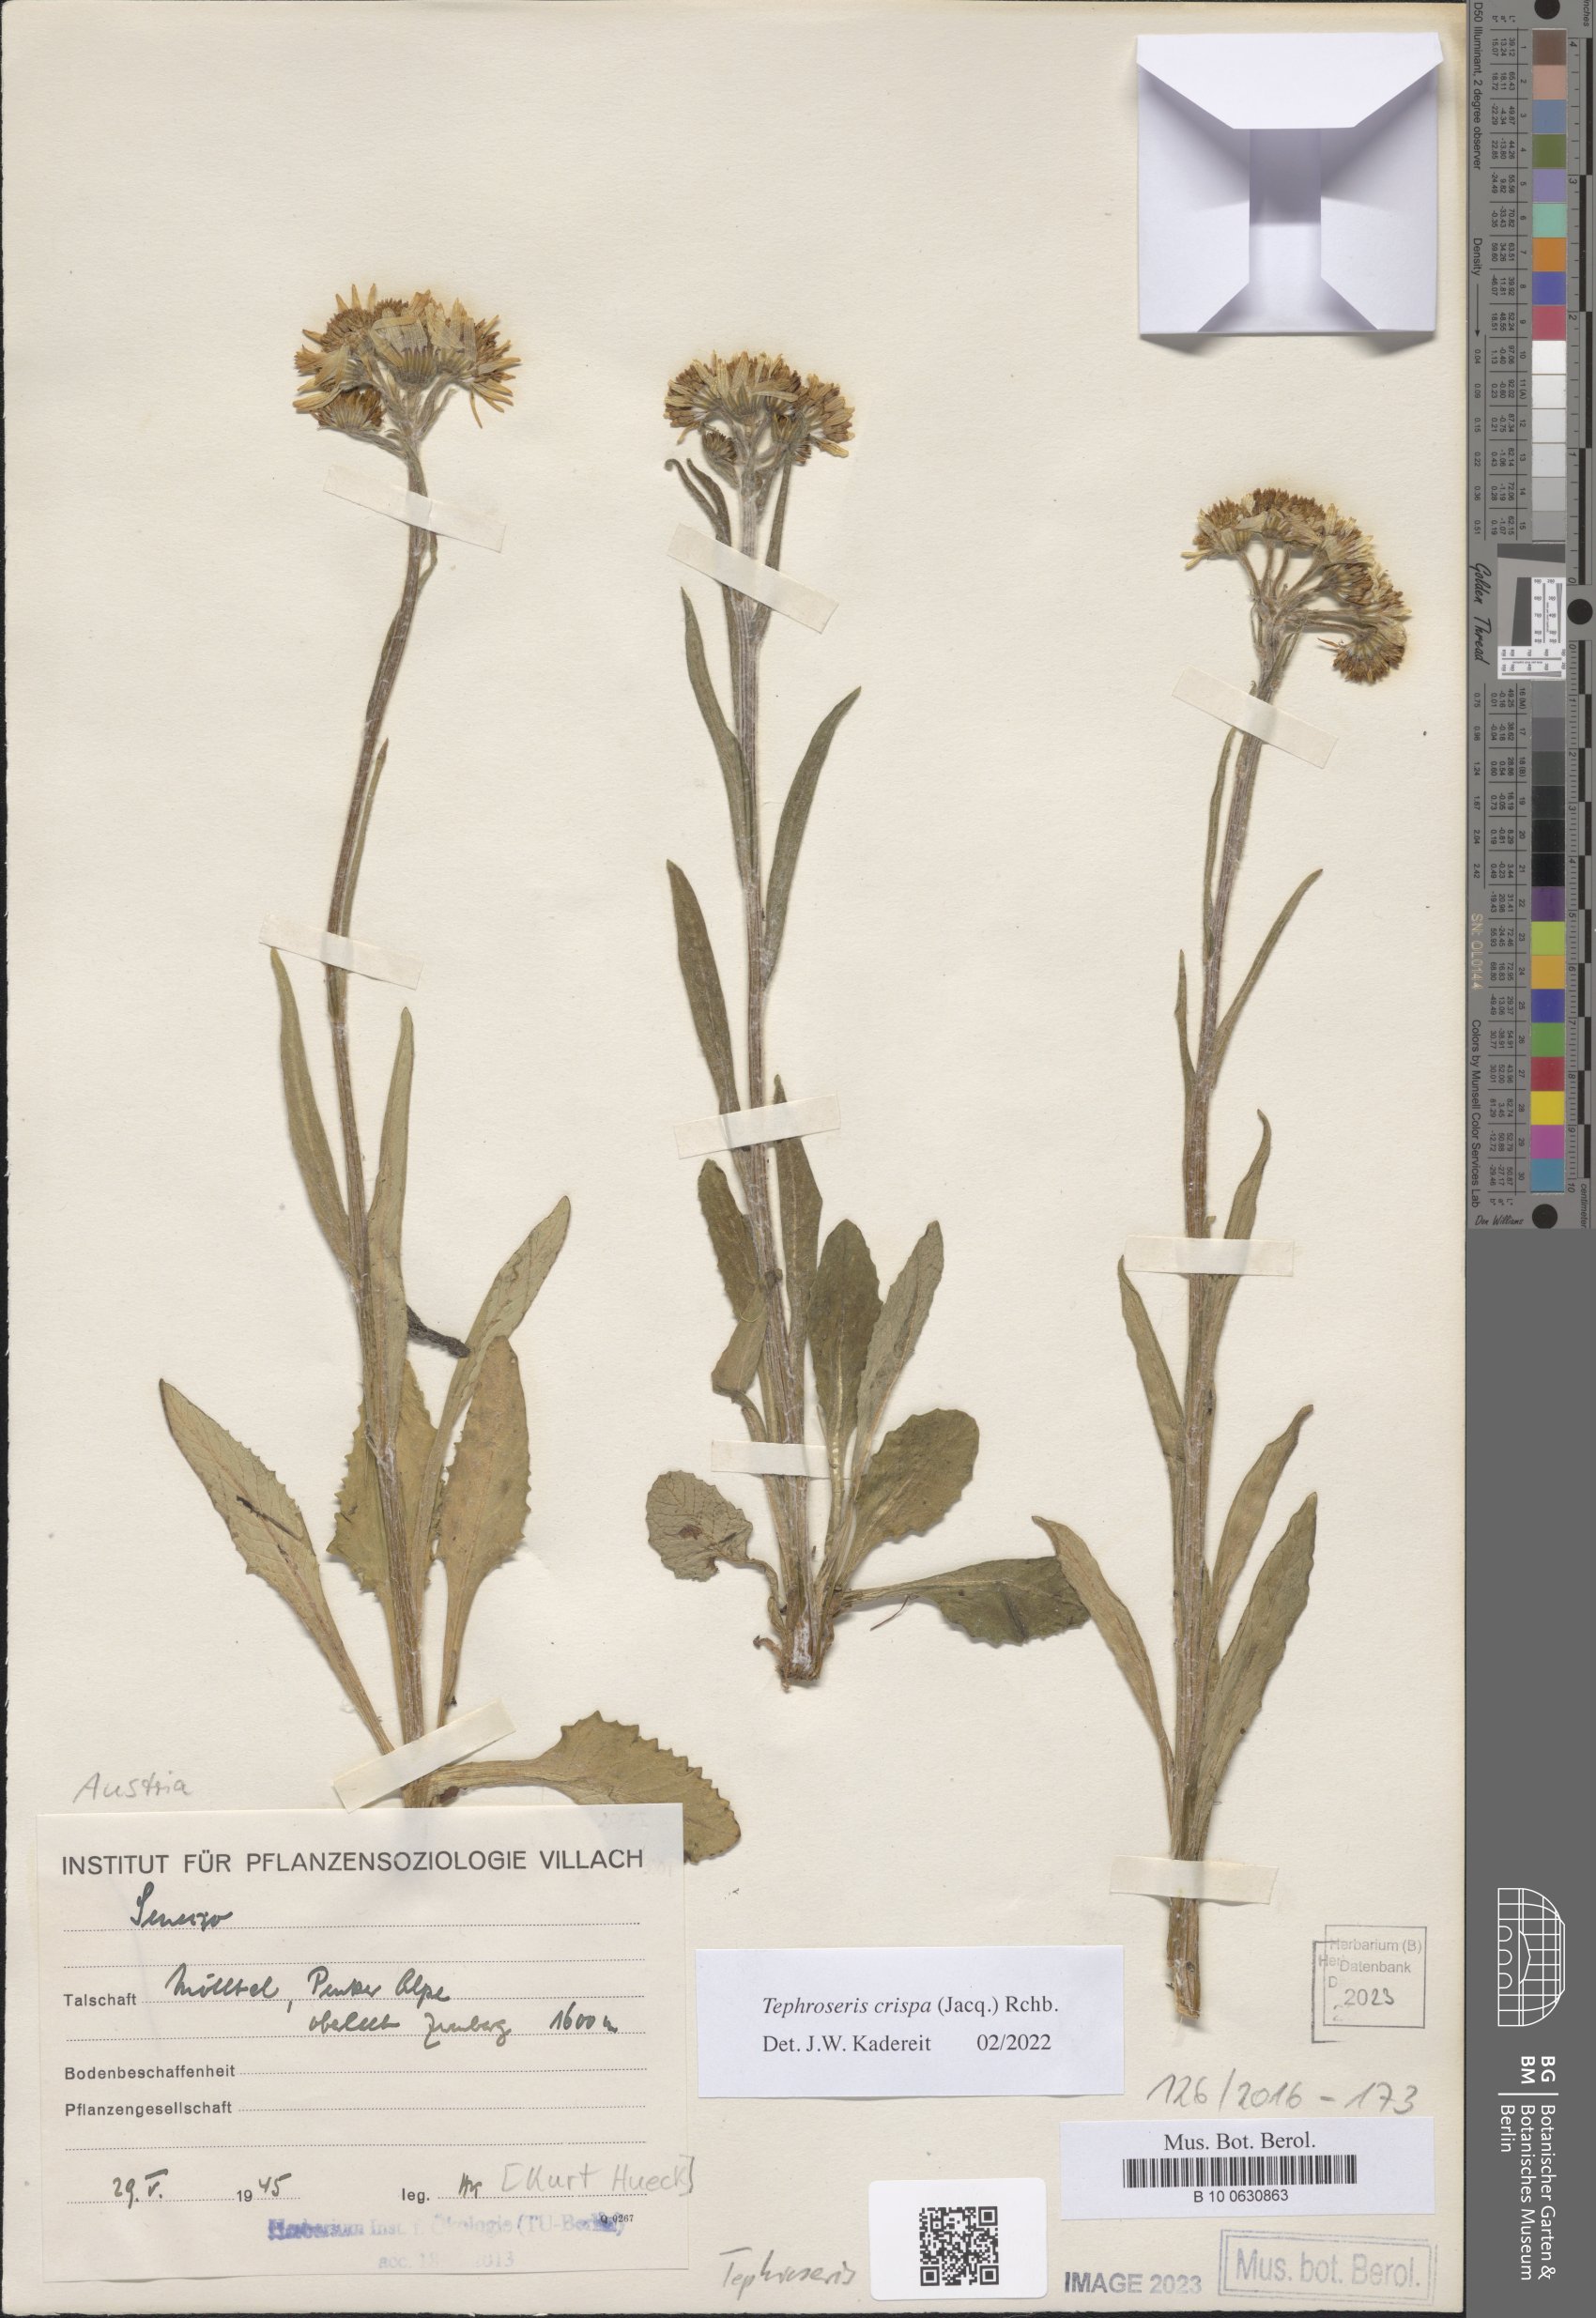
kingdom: Plantae
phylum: Tracheophyta
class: Magnoliopsida
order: Asterales
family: Asteraceae
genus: Tephroseris
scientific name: Tephroseris crispa
